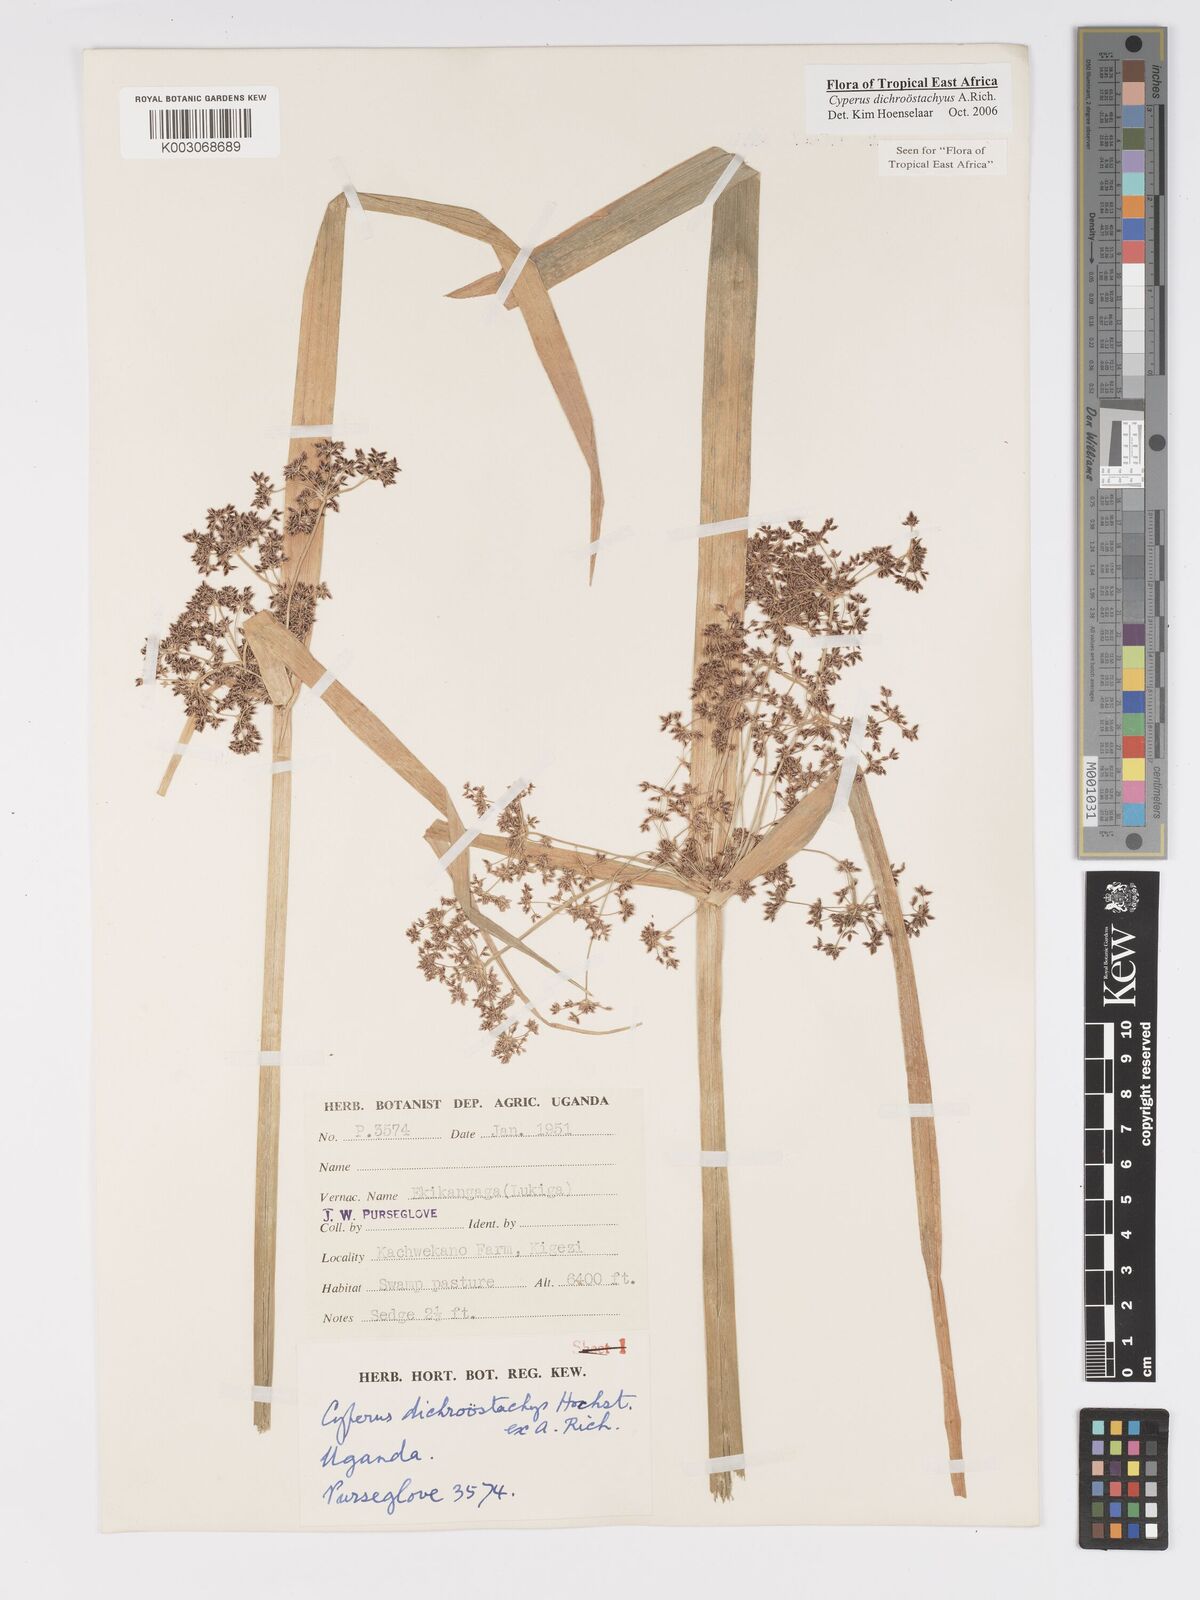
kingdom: Plantae
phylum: Tracheophyta
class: Liliopsida
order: Poales
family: Cyperaceae
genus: Cyperus
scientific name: Cyperus dichrostachyus
